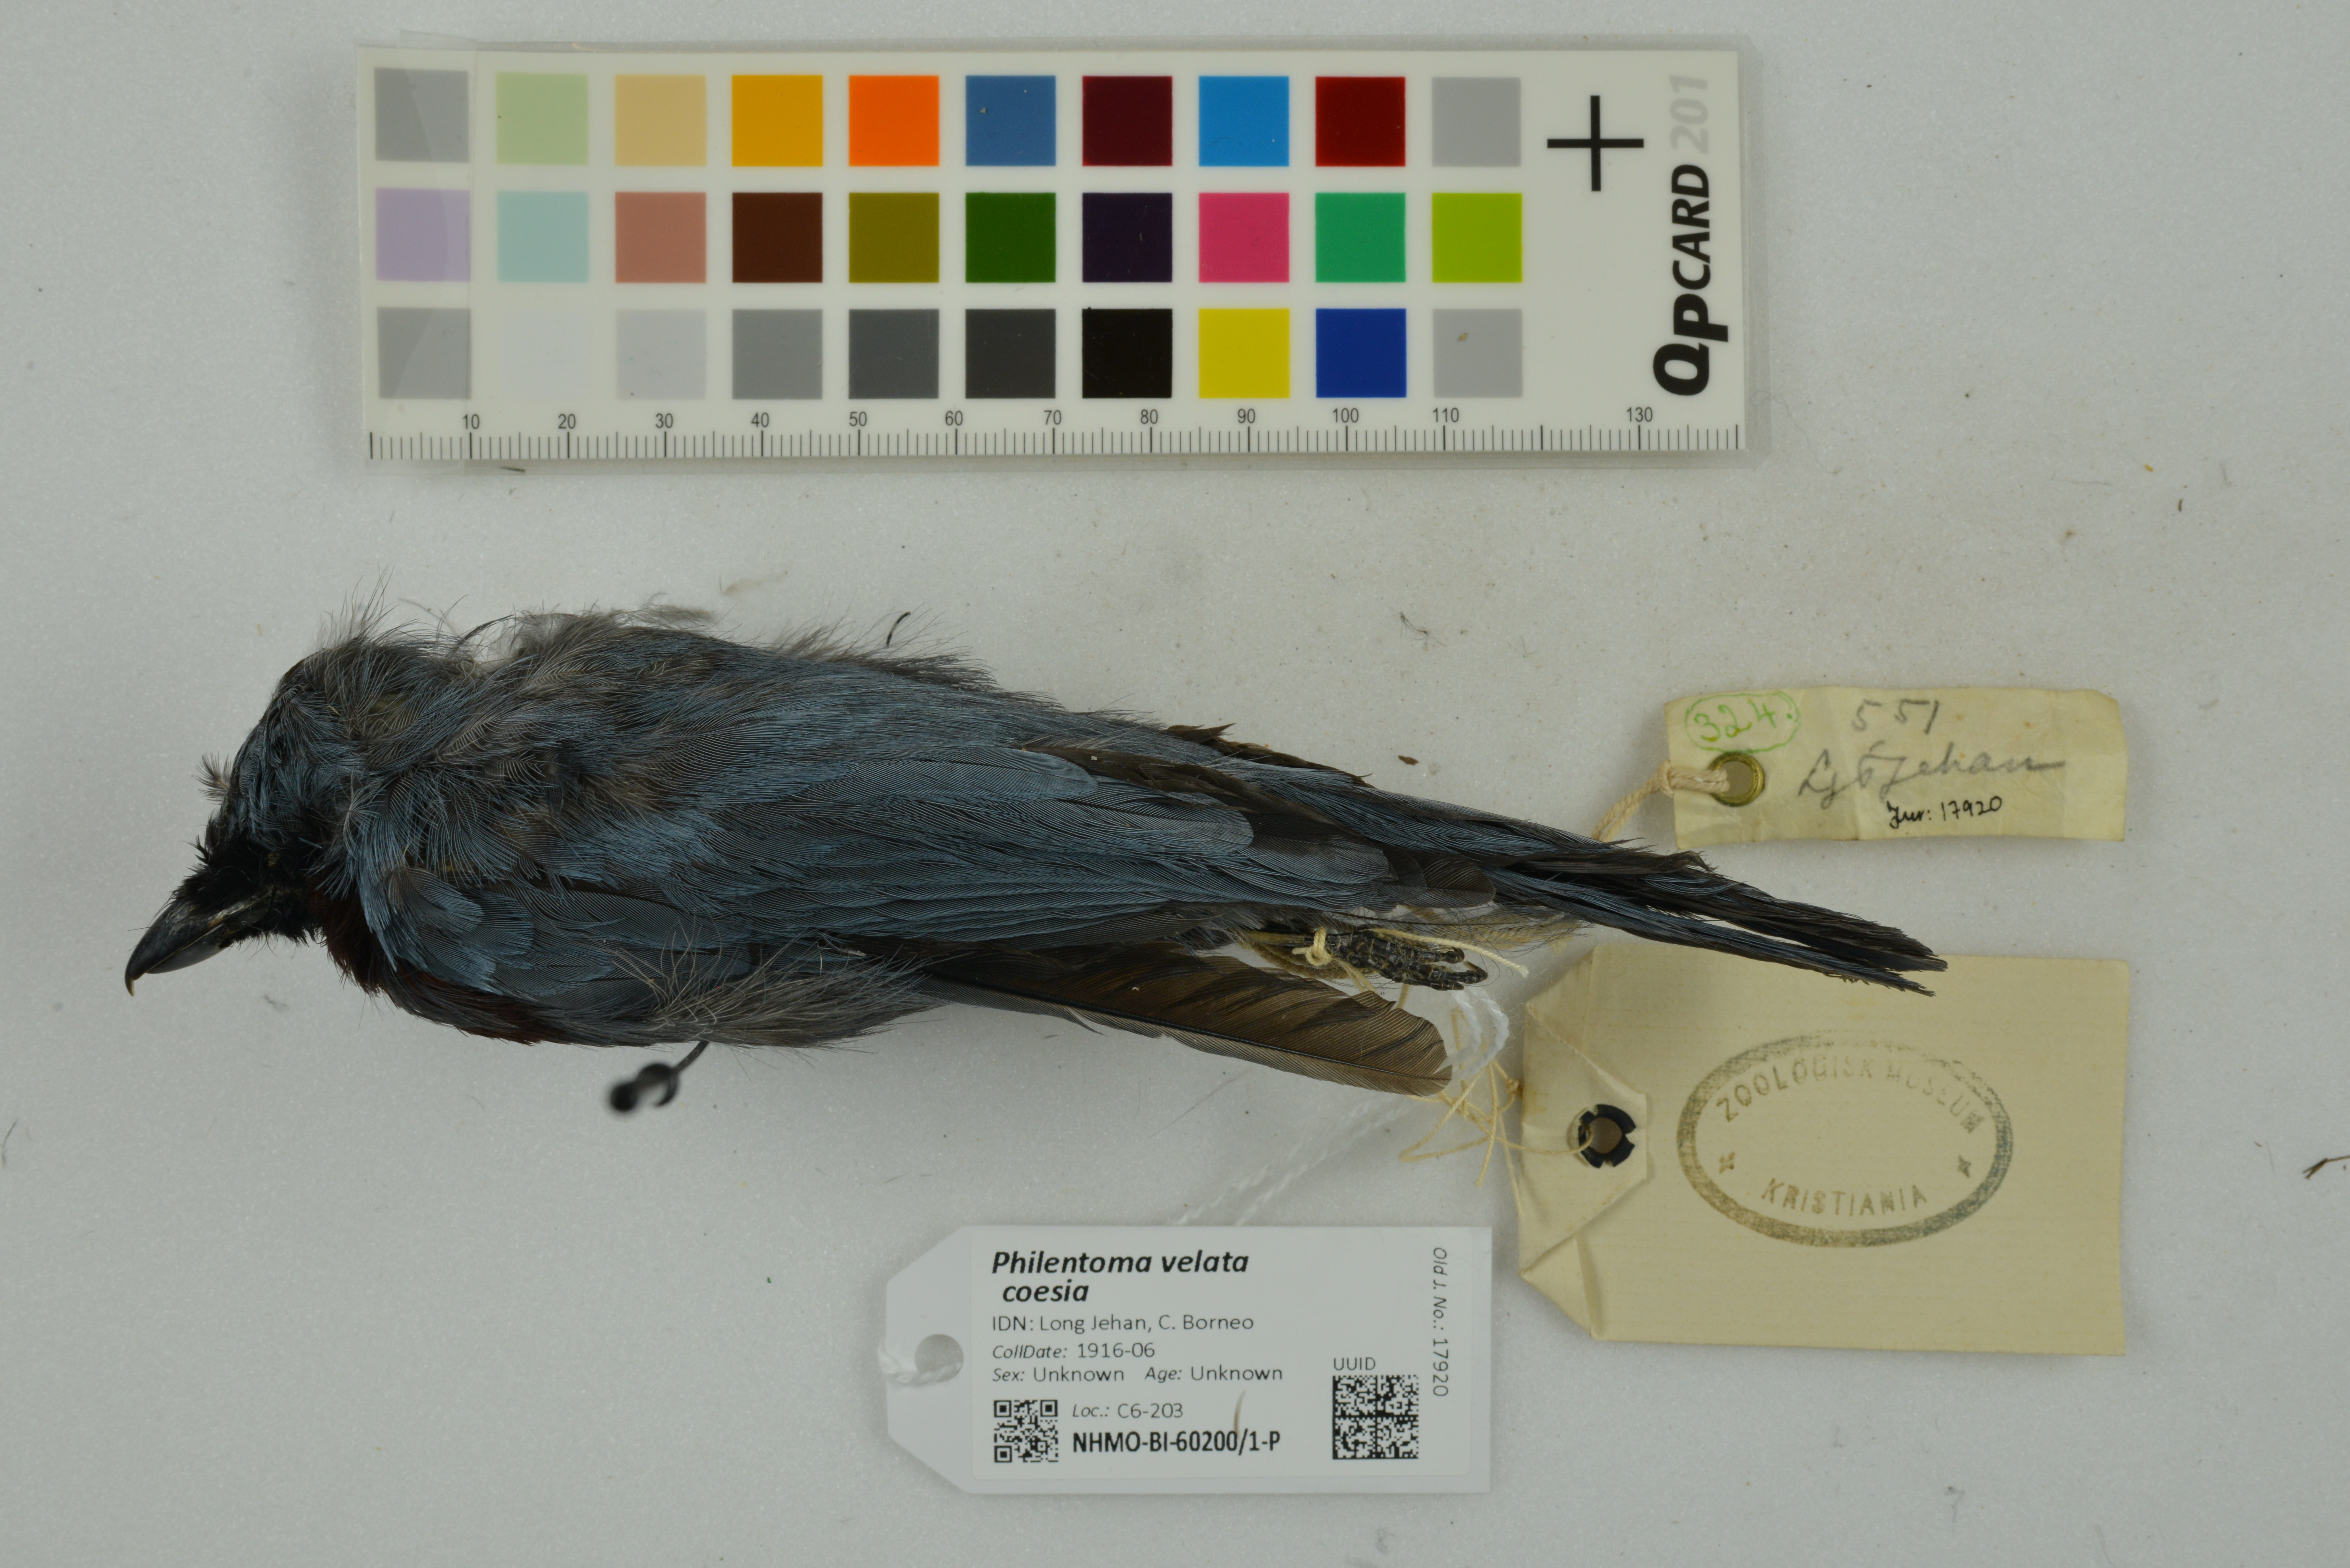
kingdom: Animalia
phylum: Chordata
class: Aves
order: Passeriformes
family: Tephrodornithidae
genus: Philentoma
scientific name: Philentoma velata
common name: Maroon-breasted philentoma
